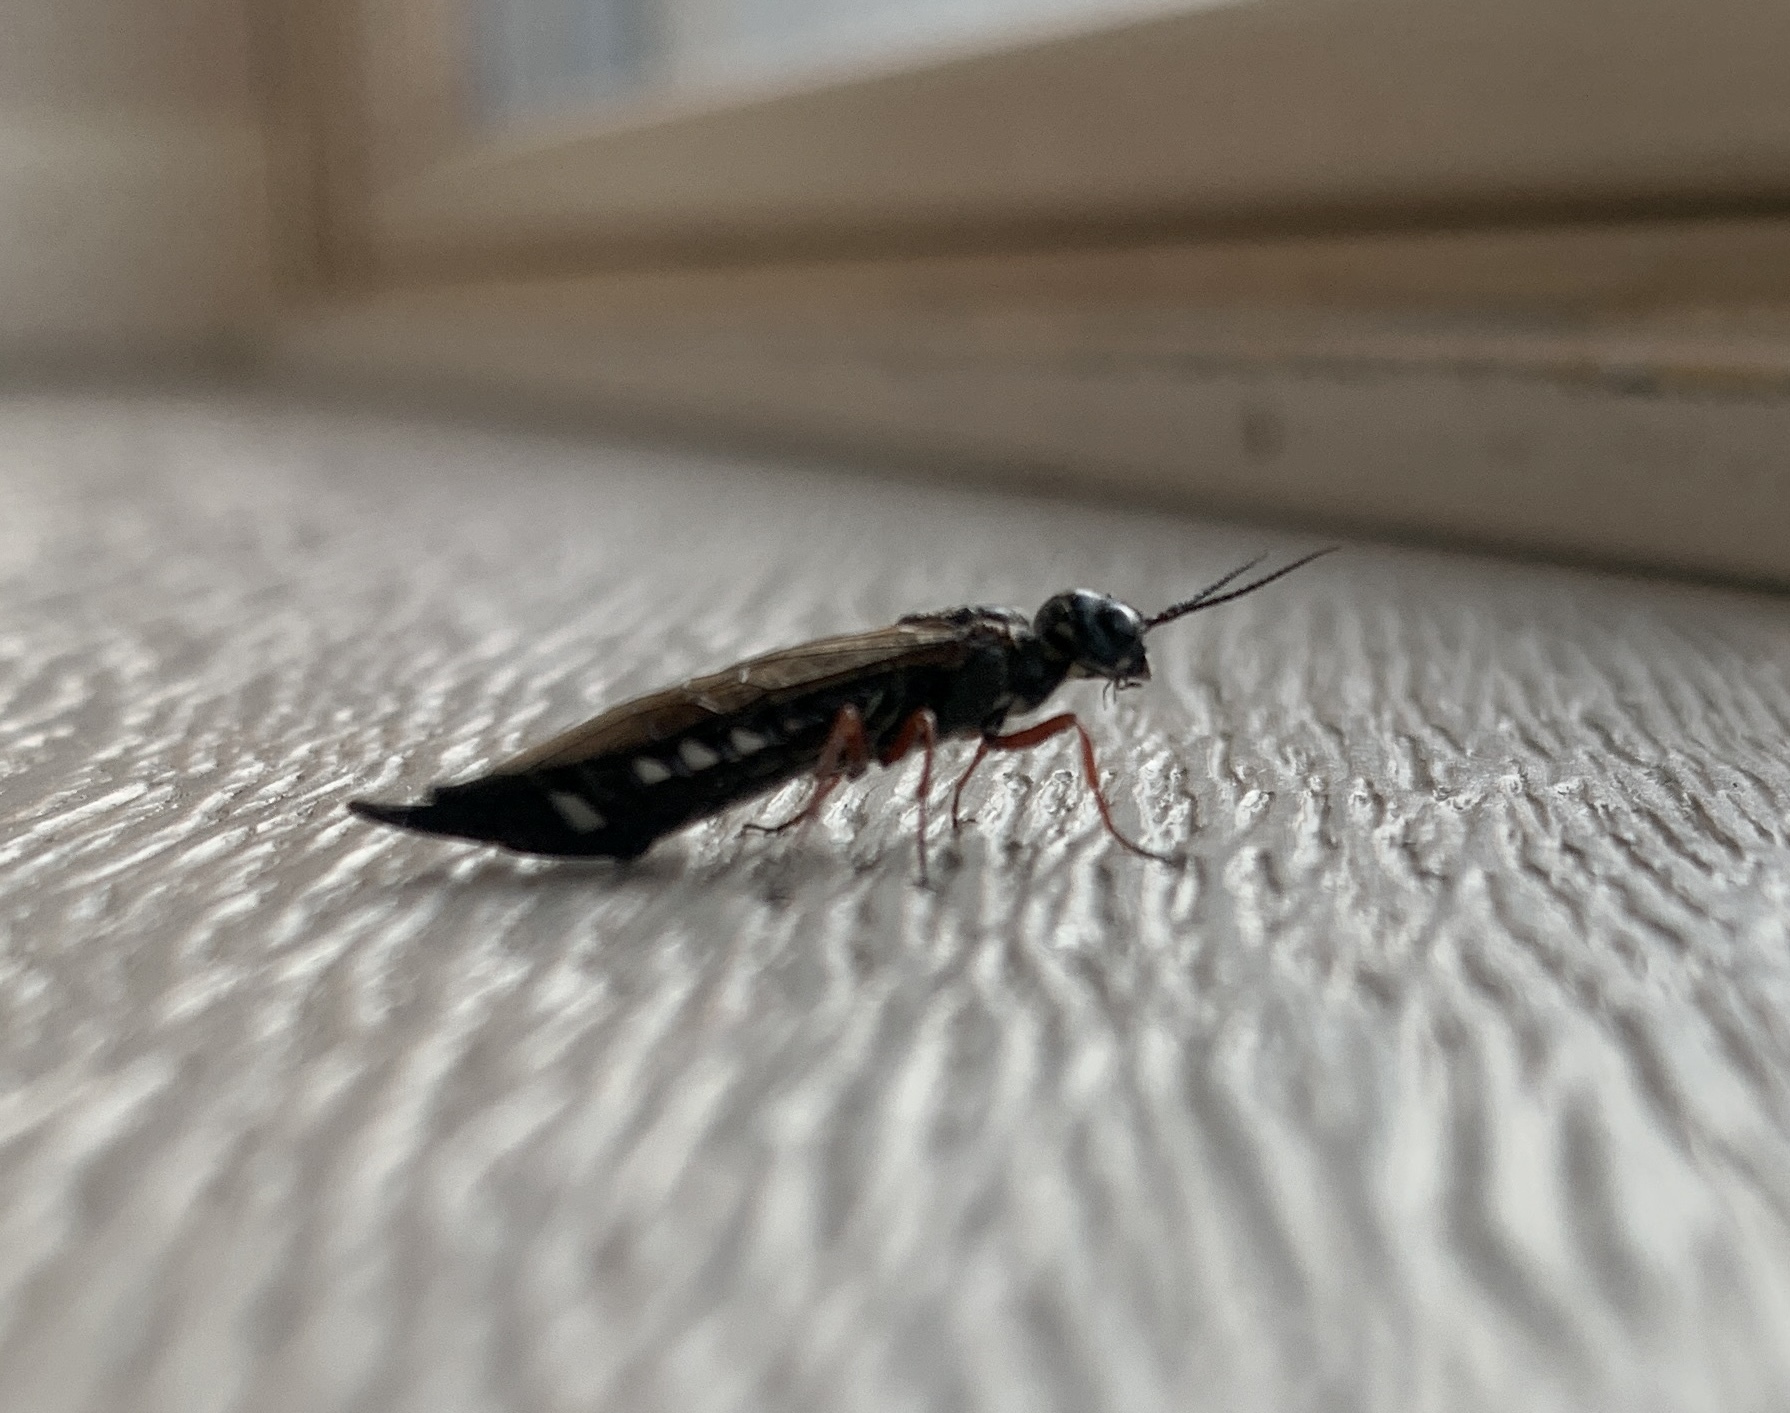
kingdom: Animalia
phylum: Arthropoda
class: Insecta
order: Hymenoptera
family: Xiphydriidae
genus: Xiphydria
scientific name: Xiphydria camelus
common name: Alder wood-wasp
